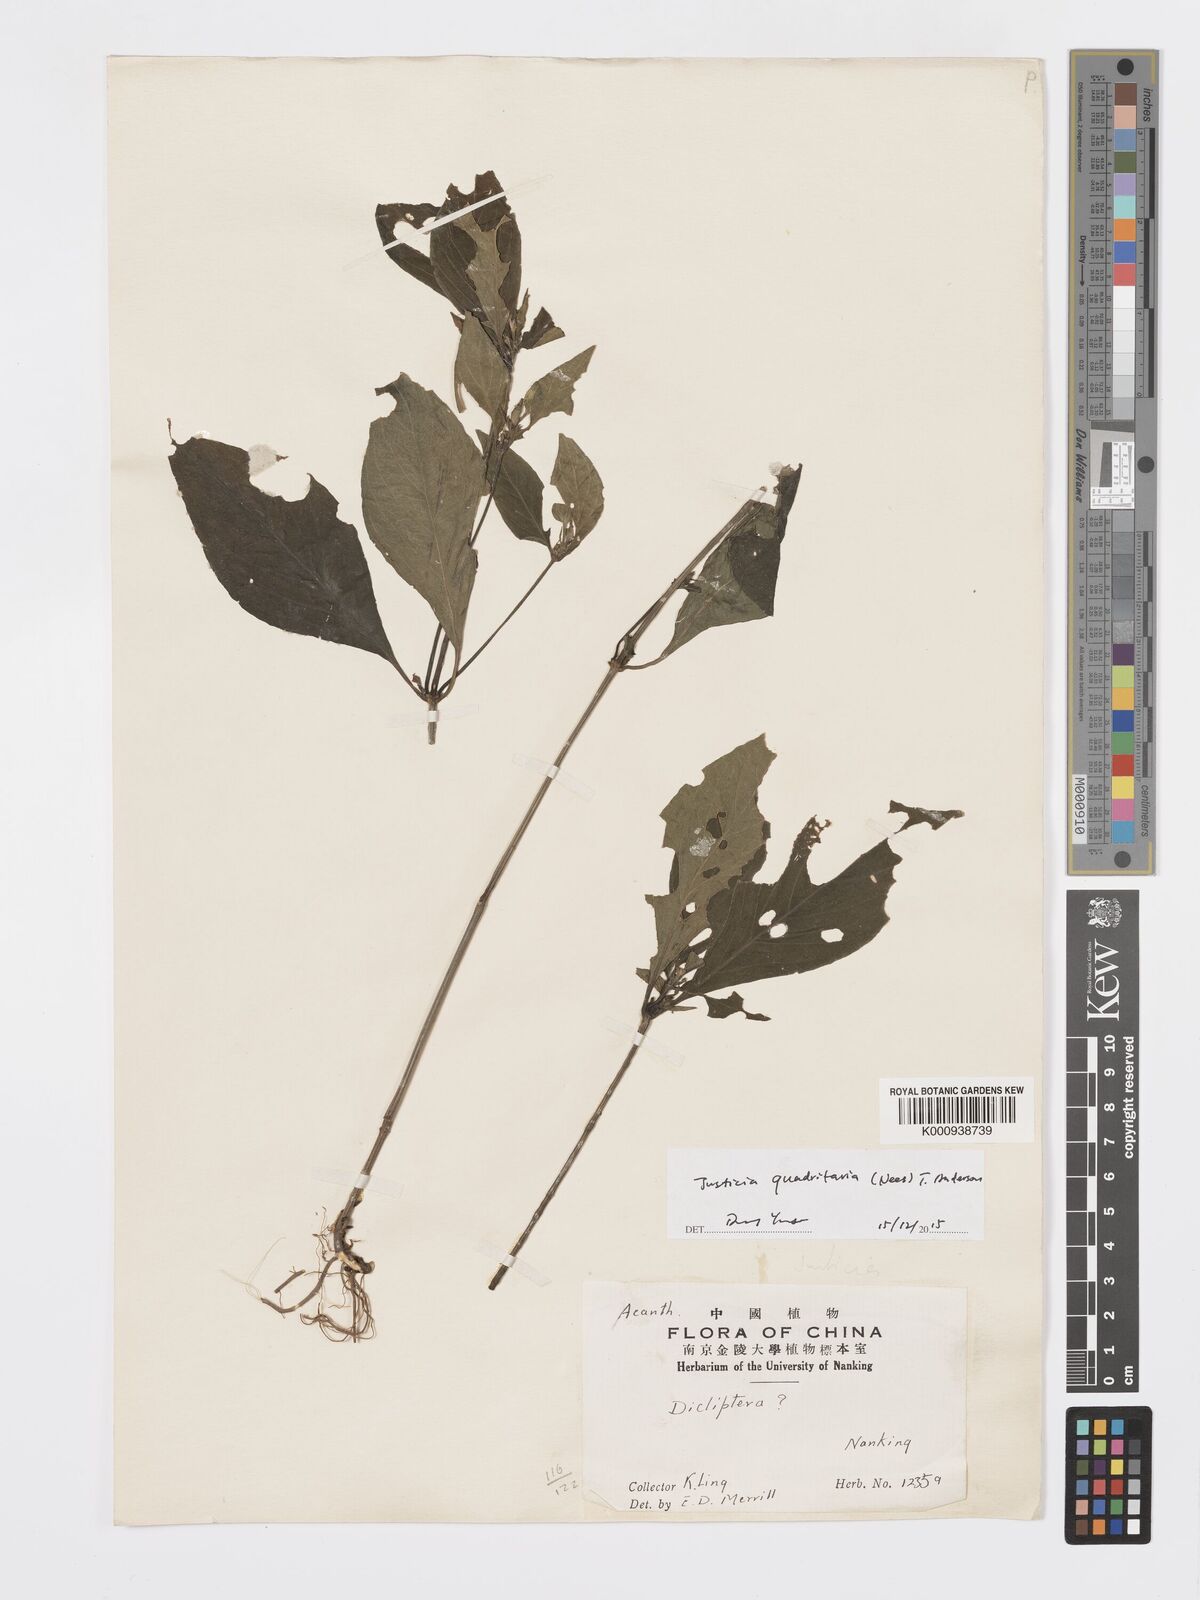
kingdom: Plantae
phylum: Tracheophyta
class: Magnoliopsida
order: Lamiales
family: Acanthaceae
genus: Justicia
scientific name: Justicia quadrifaria
